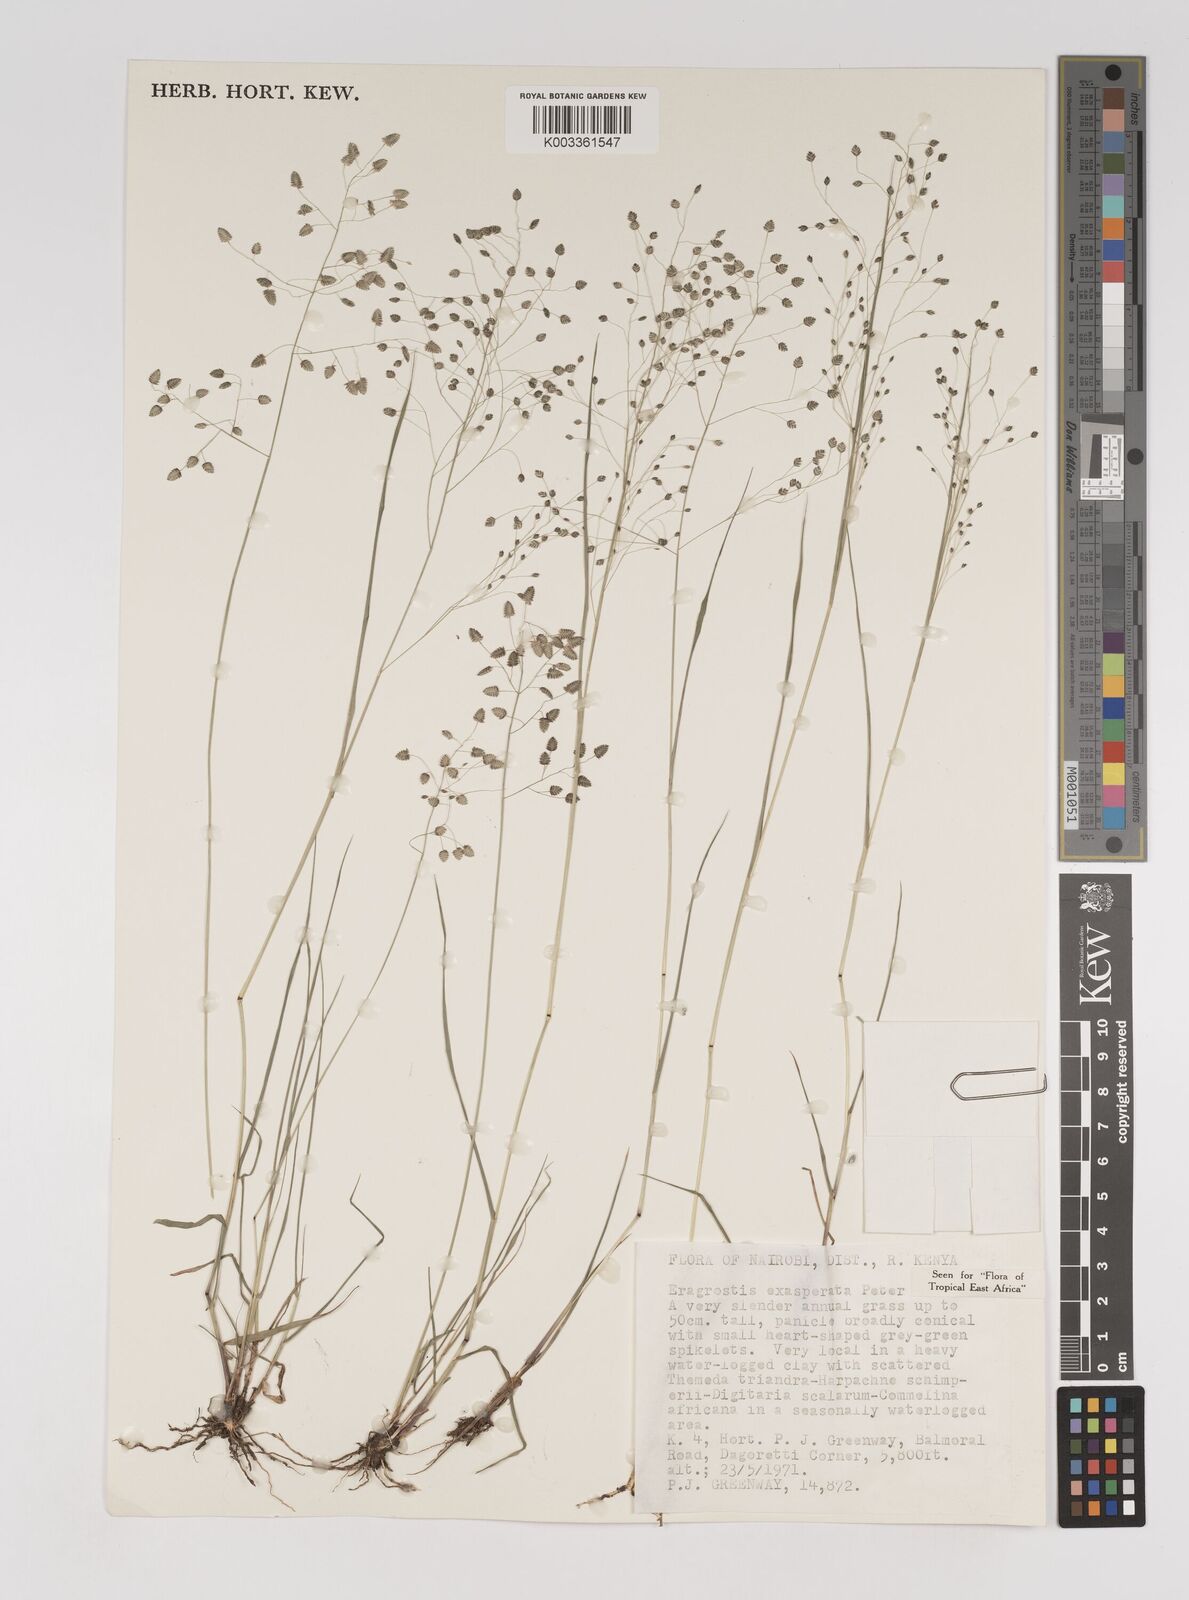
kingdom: Plantae
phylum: Tracheophyta
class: Liliopsida
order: Poales
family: Poaceae
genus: Eragrostis
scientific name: Eragrostis exasperata
